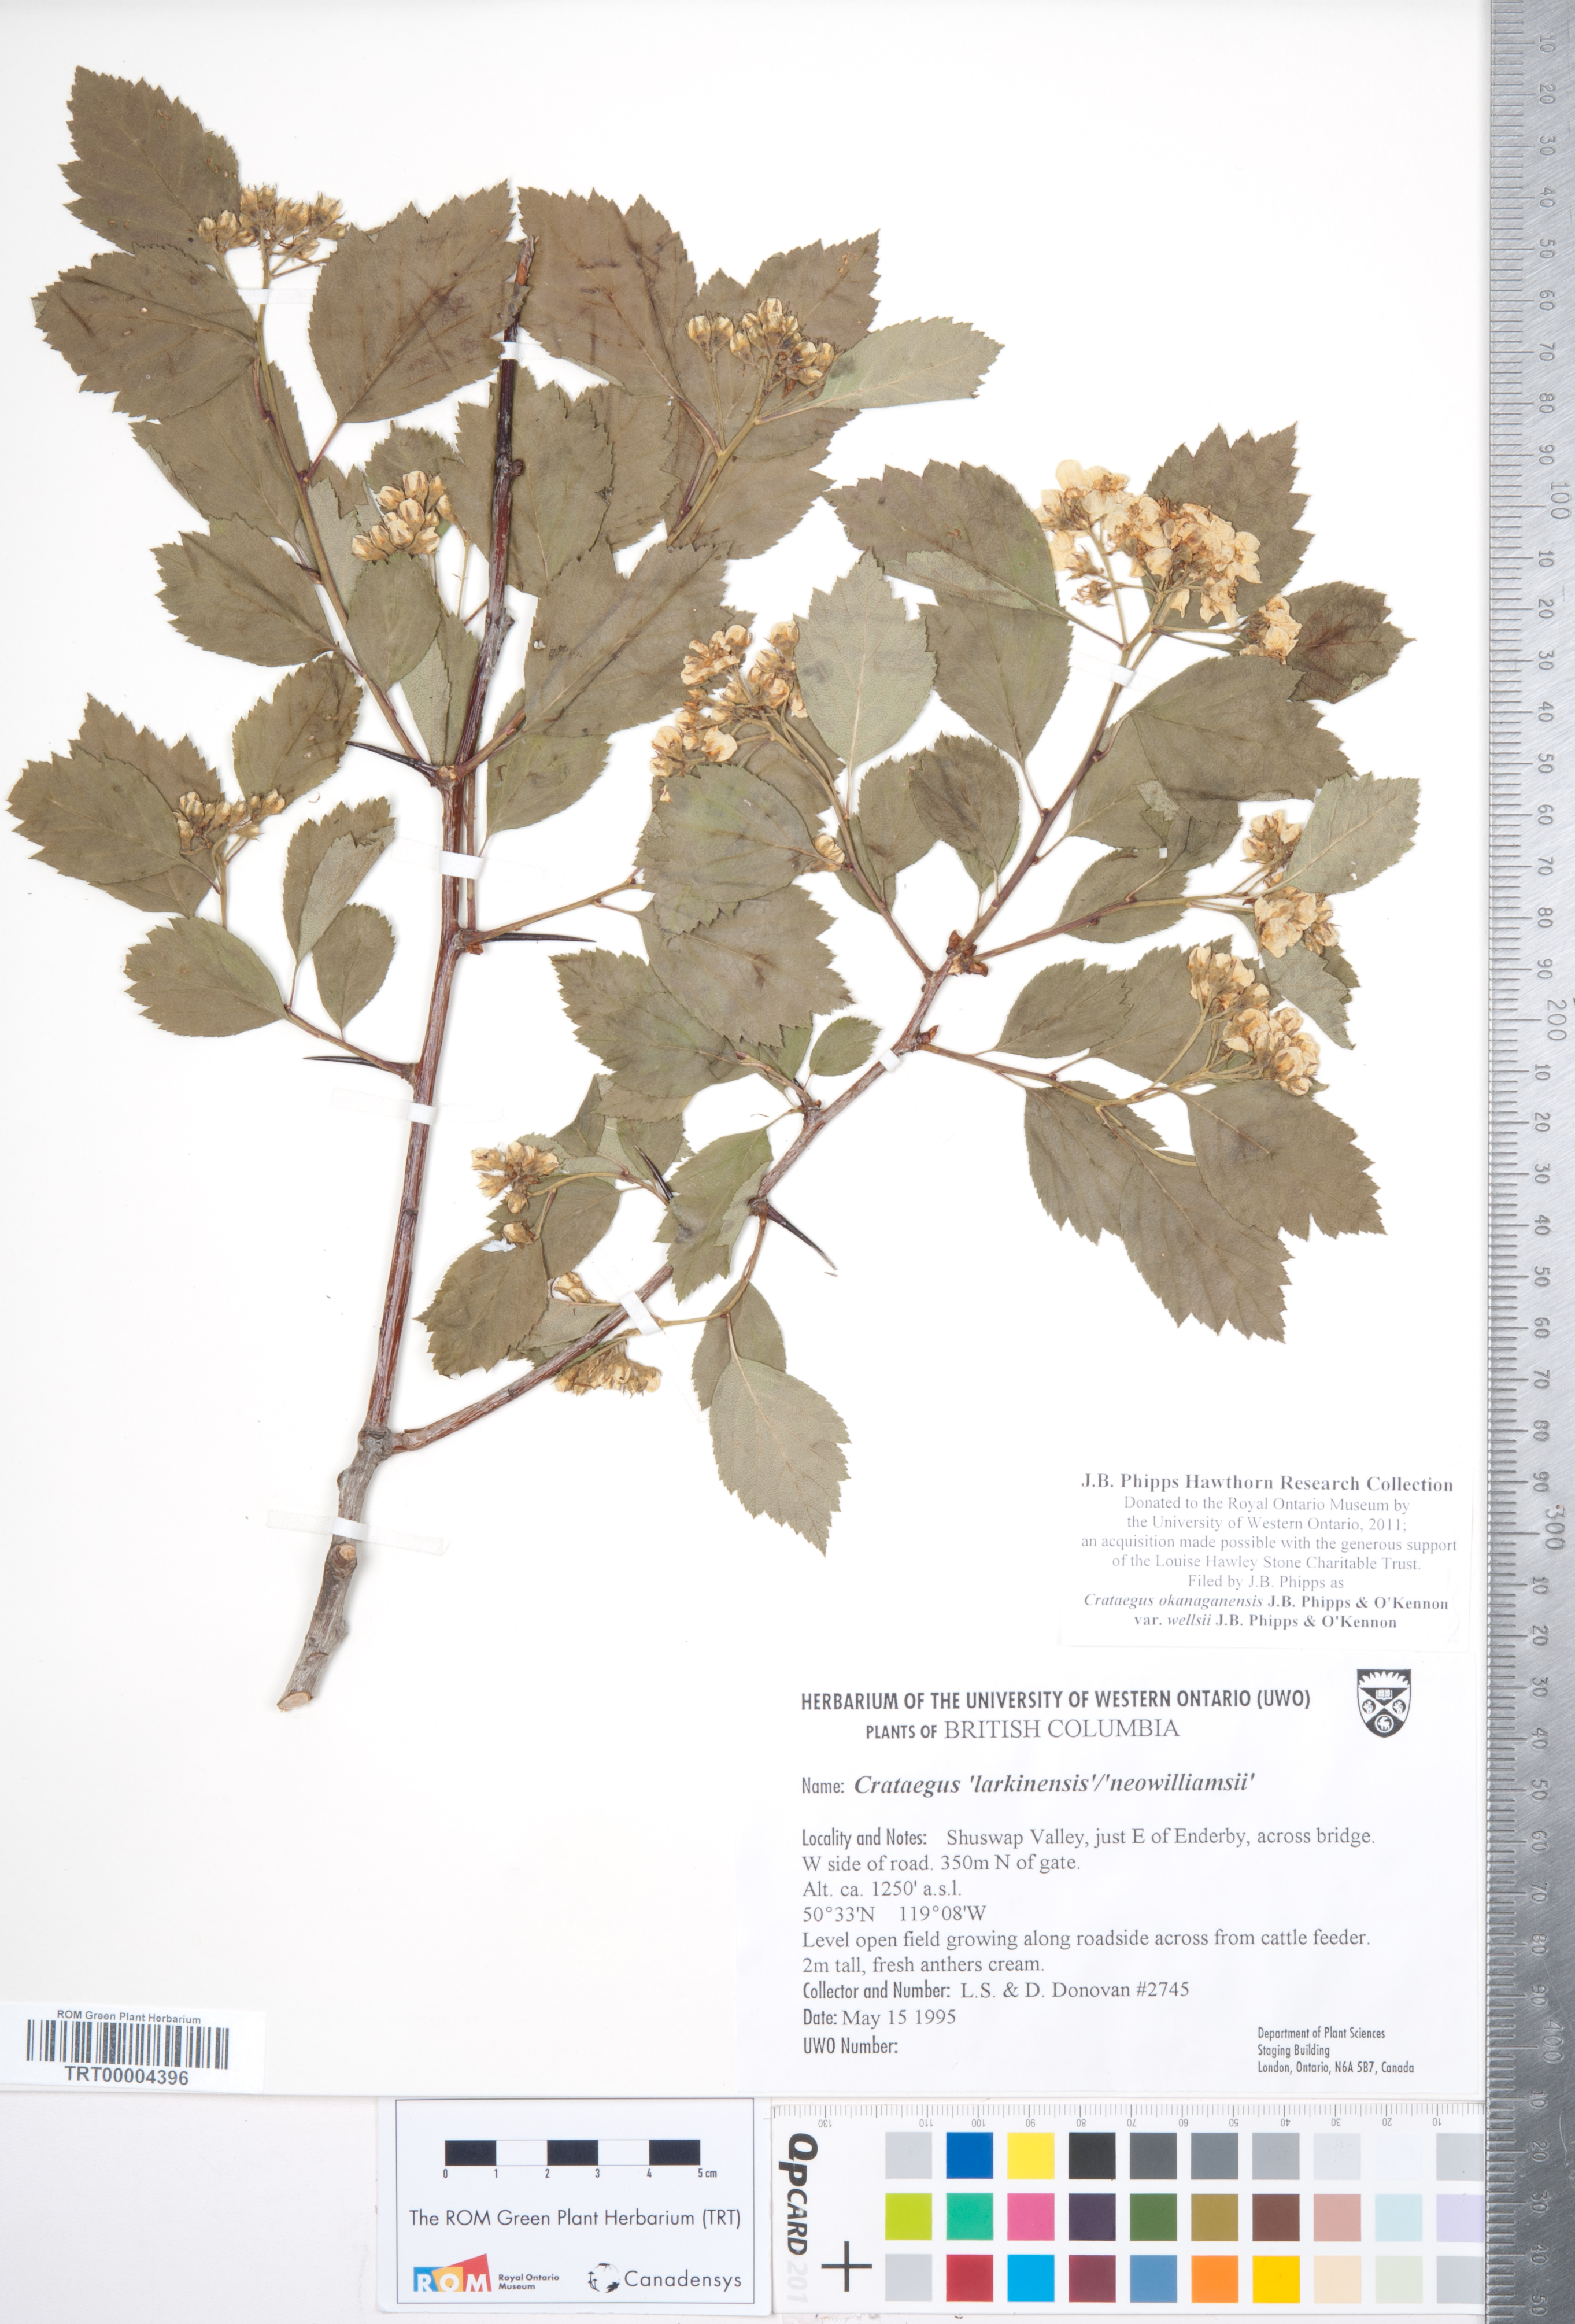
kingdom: Plantae
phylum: Tracheophyta
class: Magnoliopsida
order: Rosales
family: Rosaceae
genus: Crataegus
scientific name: Crataegus okanaganensis
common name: Okanagan valley hawthorn
